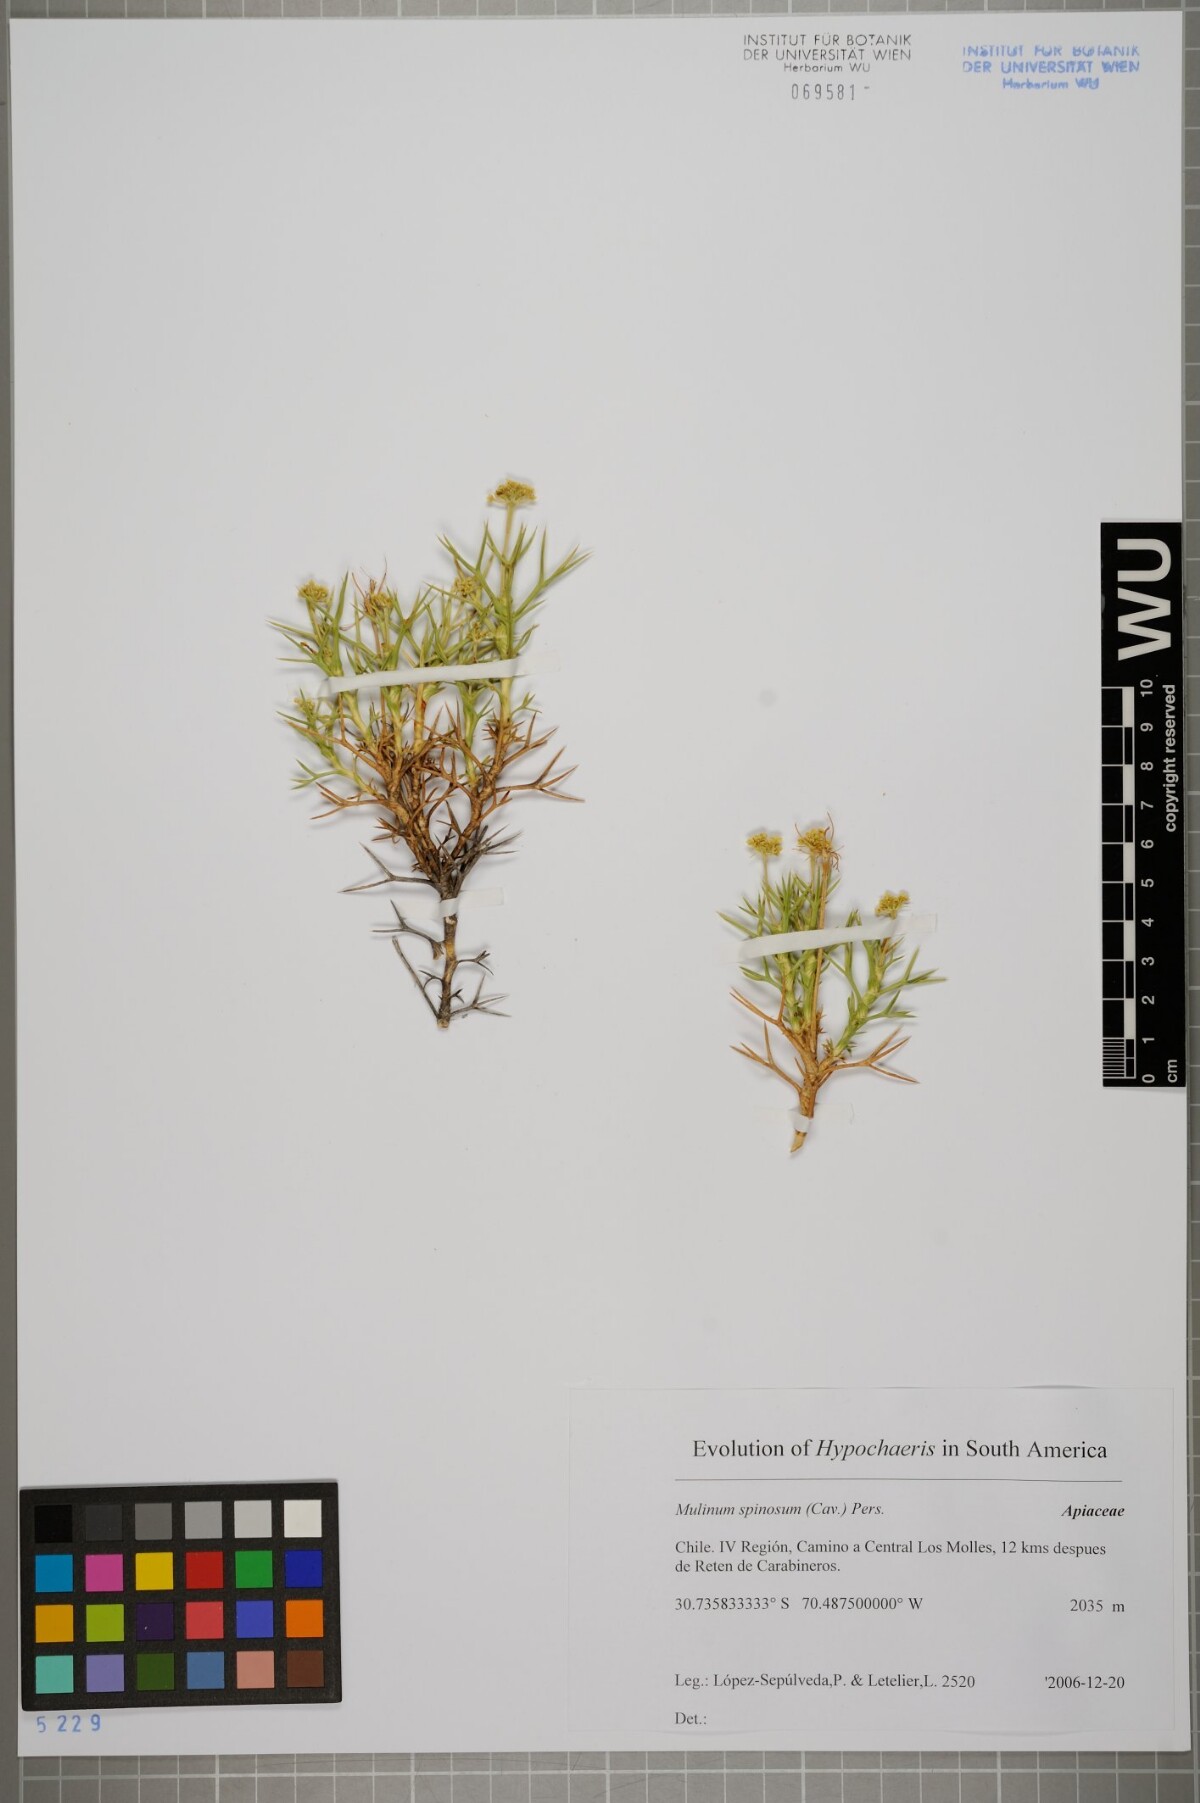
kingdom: Plantae
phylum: Tracheophyta
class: Magnoliopsida
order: Apiales
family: Apiaceae
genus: Azorella
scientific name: Azorella prolifera
